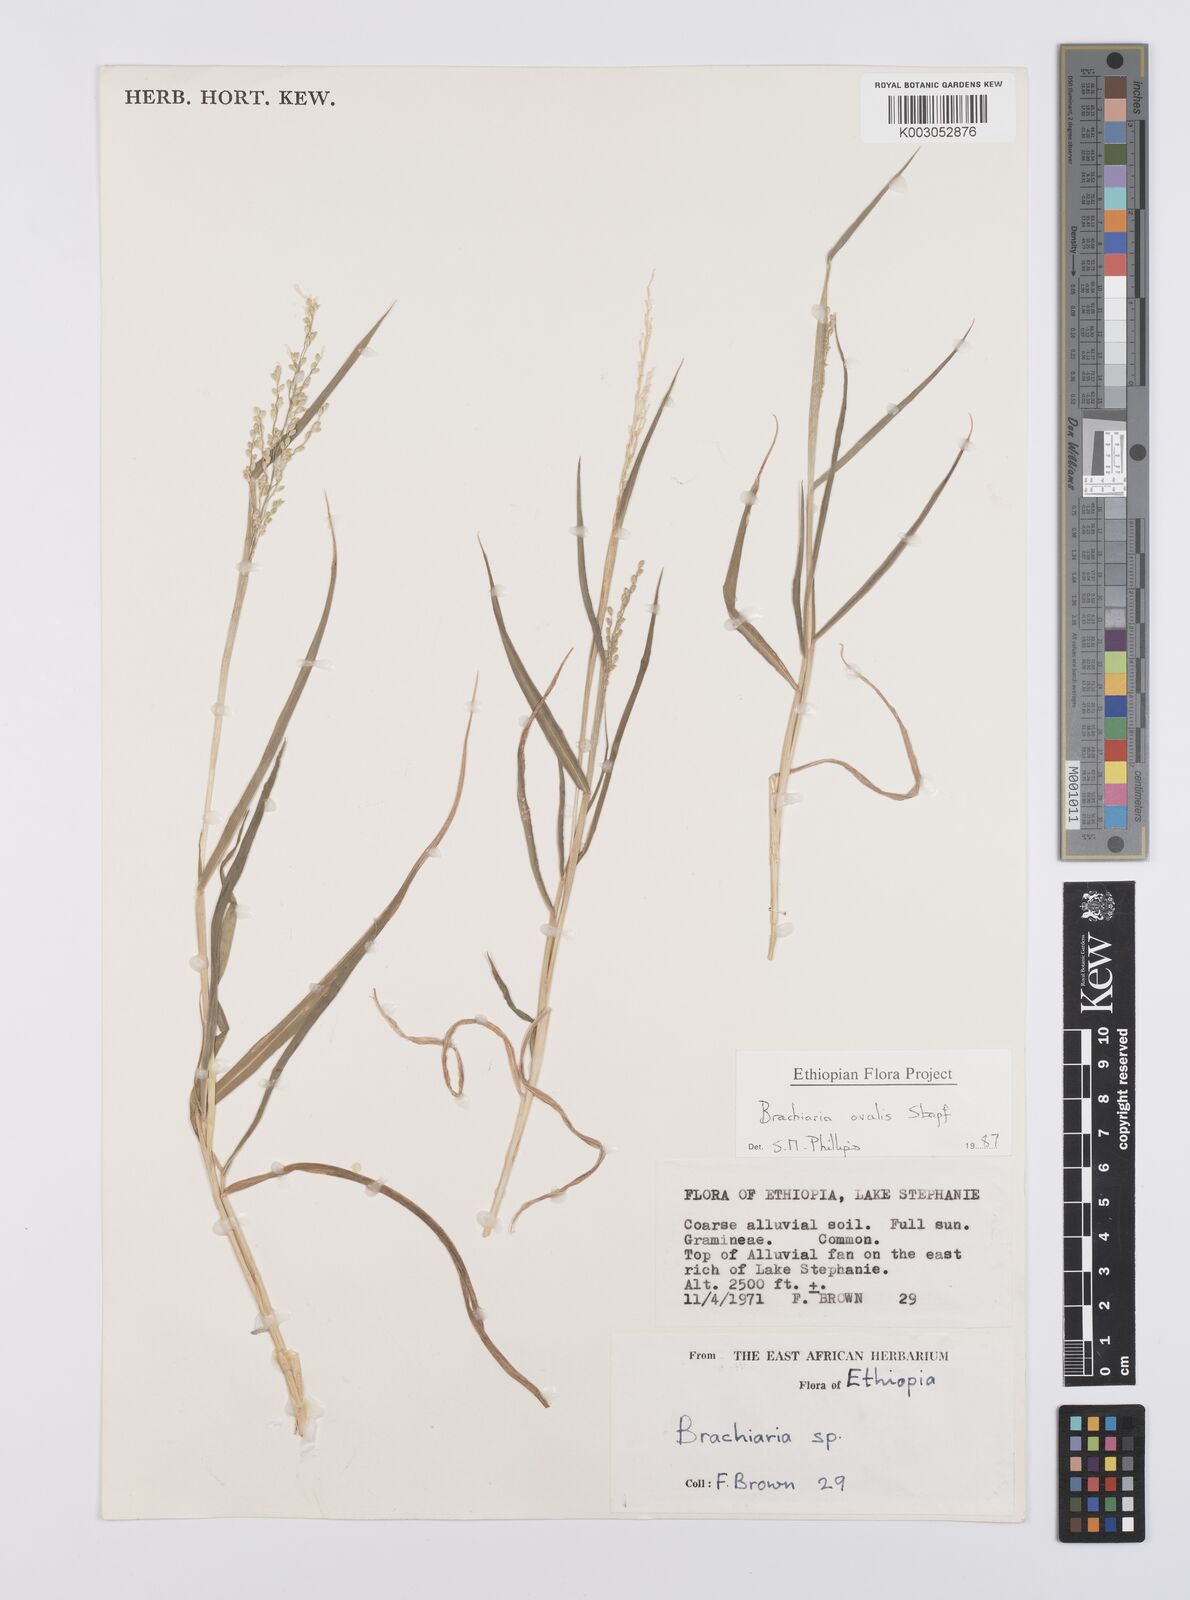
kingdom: Plantae
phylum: Tracheophyta
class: Liliopsida
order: Poales
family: Poaceae
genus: Urochloa
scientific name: Urochloa ovalis
